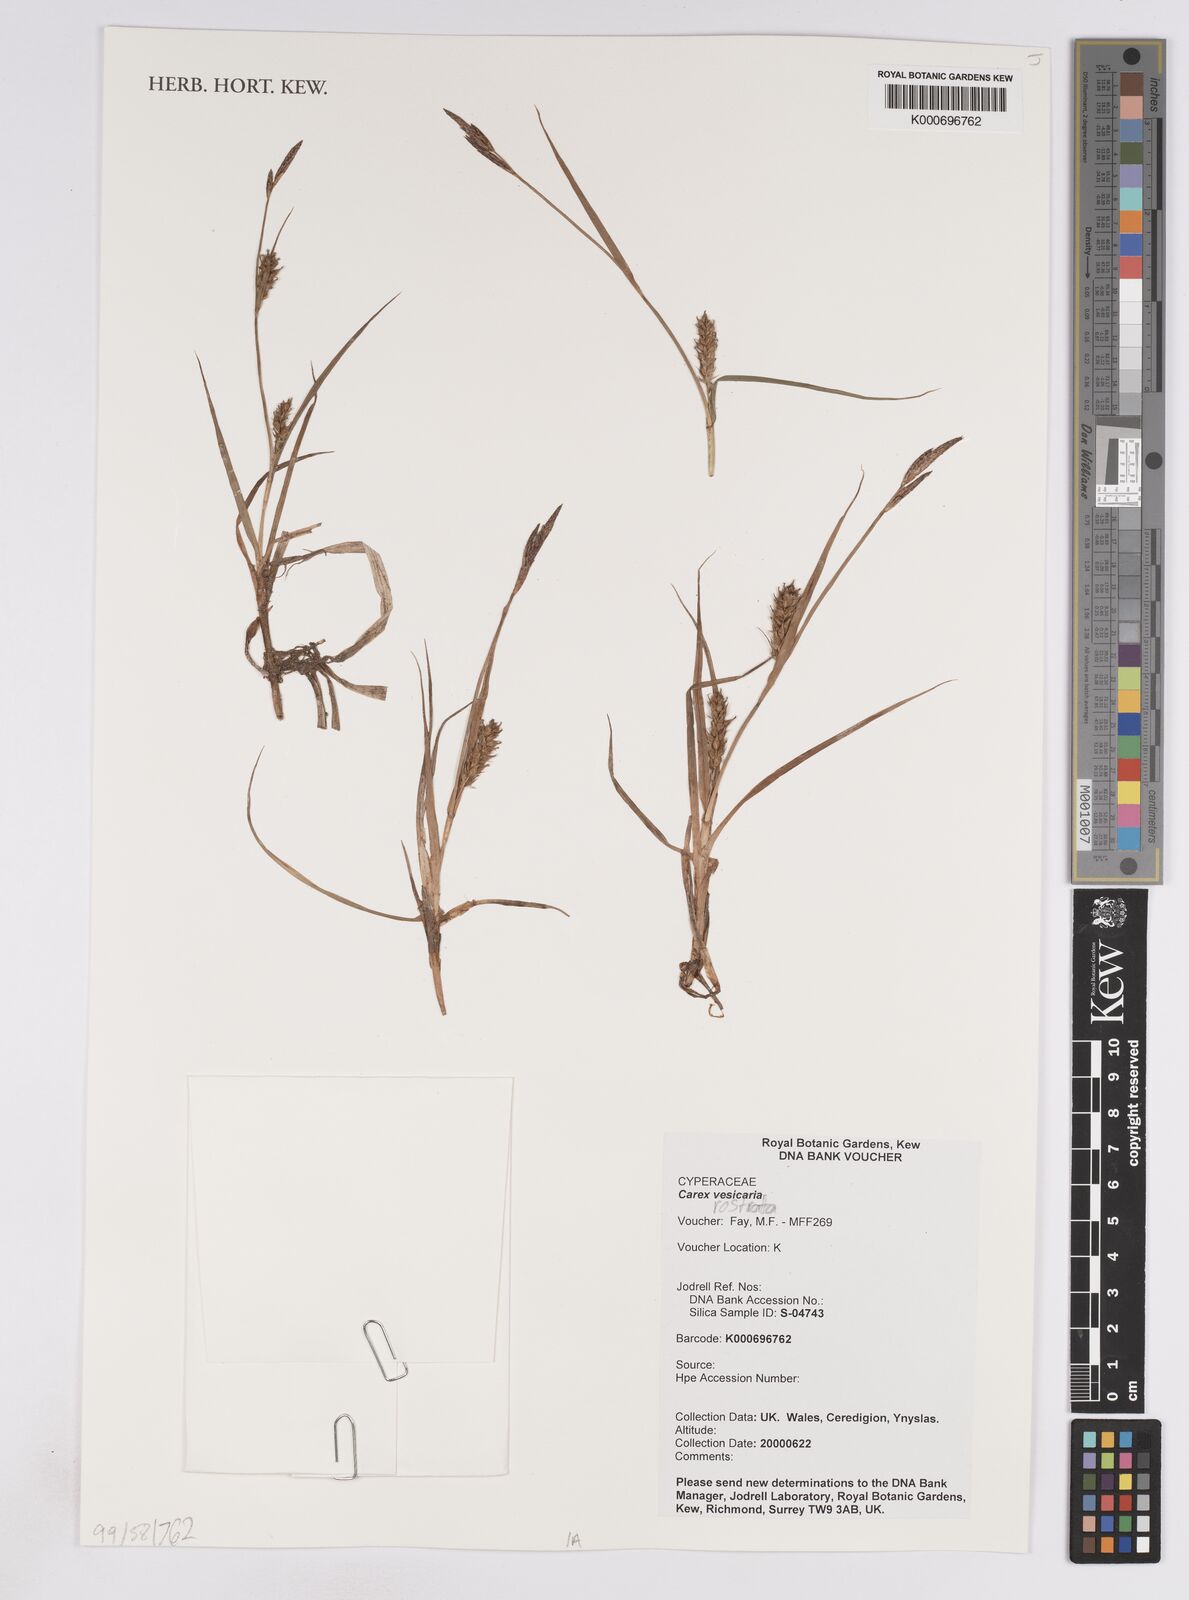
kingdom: Plantae
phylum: Tracheophyta
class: Liliopsida
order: Poales
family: Cyperaceae
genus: Carex
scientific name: Carex vesicaria
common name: Bladder-sedge
